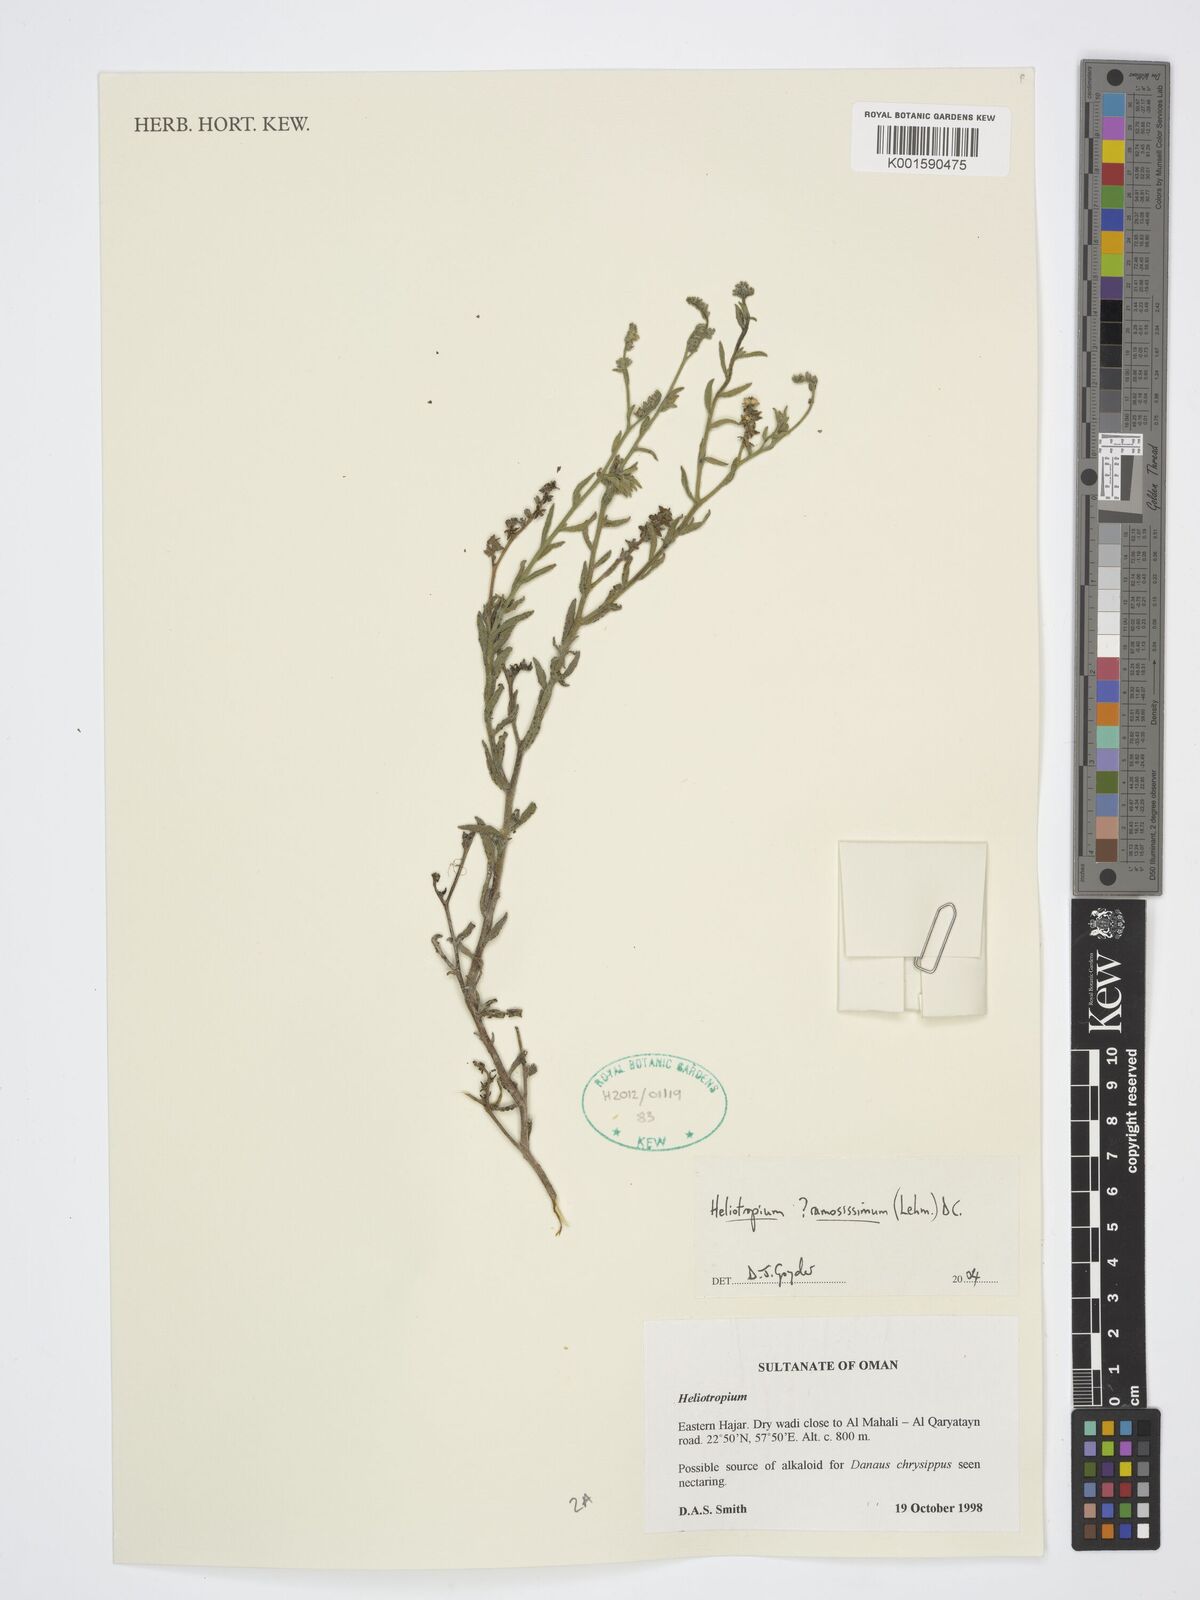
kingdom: Plantae
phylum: Tracheophyta
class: Magnoliopsida
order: Boraginales
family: Heliotropiaceae
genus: Heliotropium
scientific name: Heliotropium
